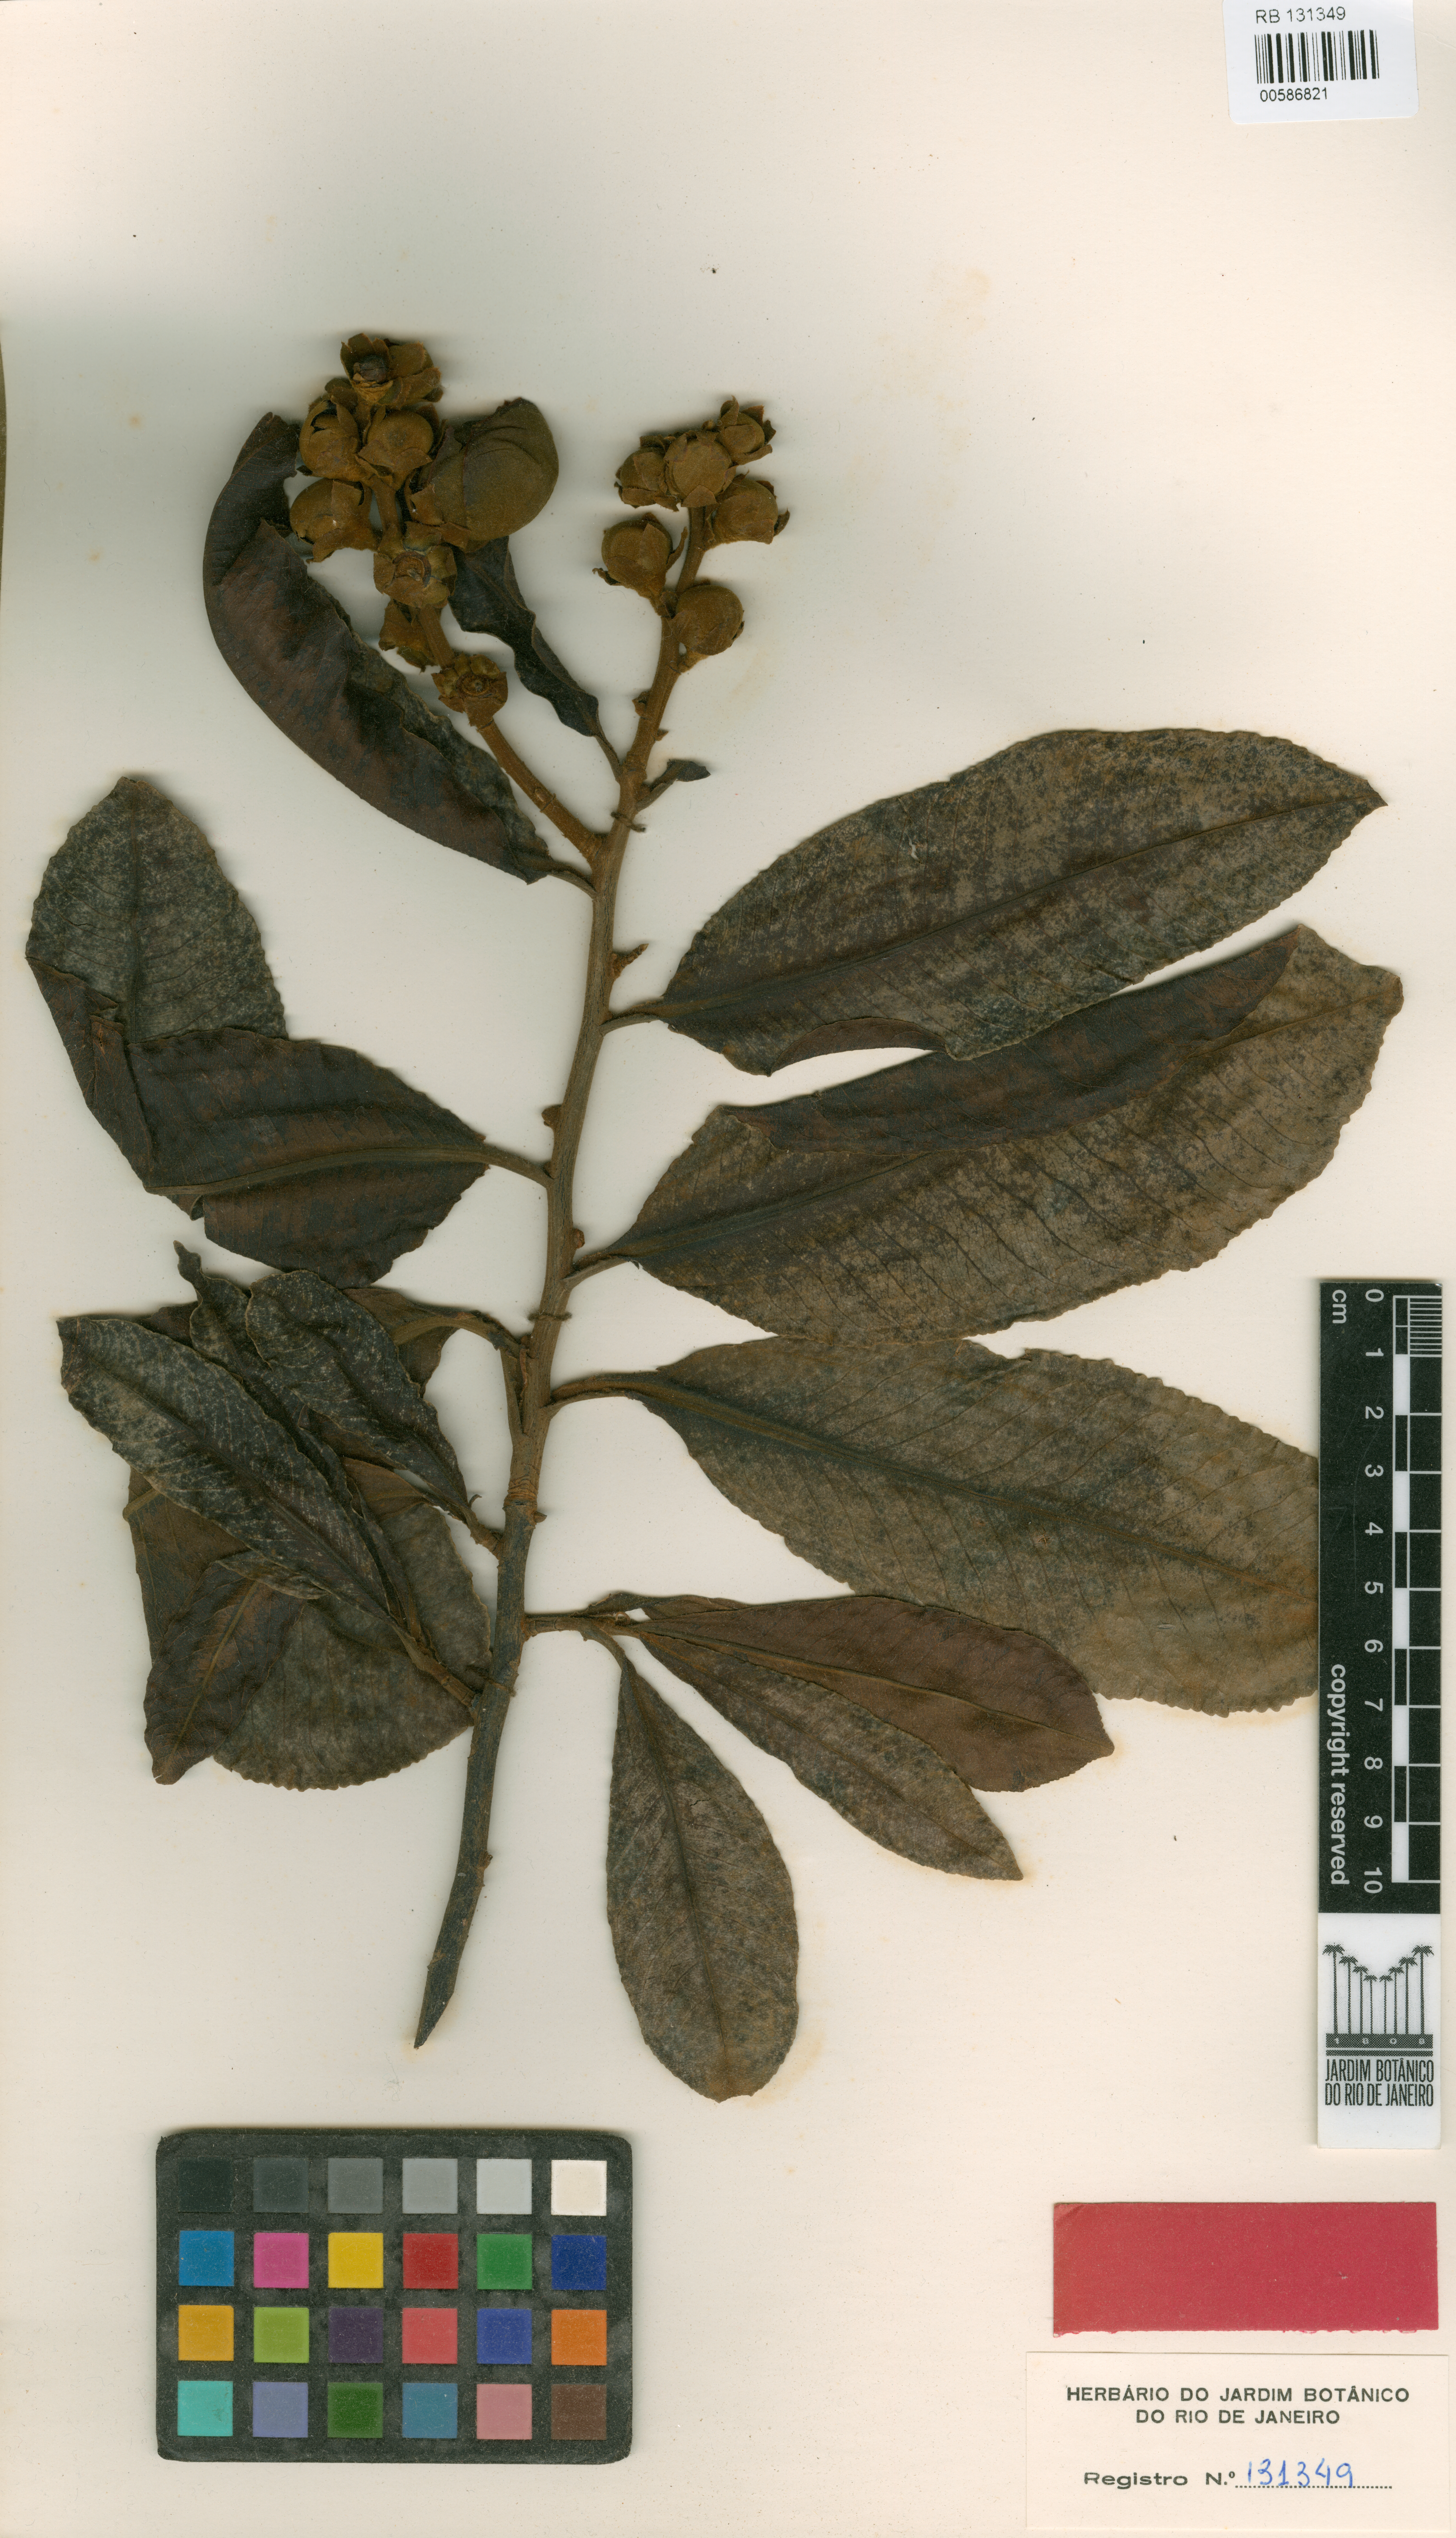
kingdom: Plantae
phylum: Tracheophyta
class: Magnoliopsida
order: Ericales
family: Lecythidaceae
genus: Couratari
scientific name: Couratari macrosperma
